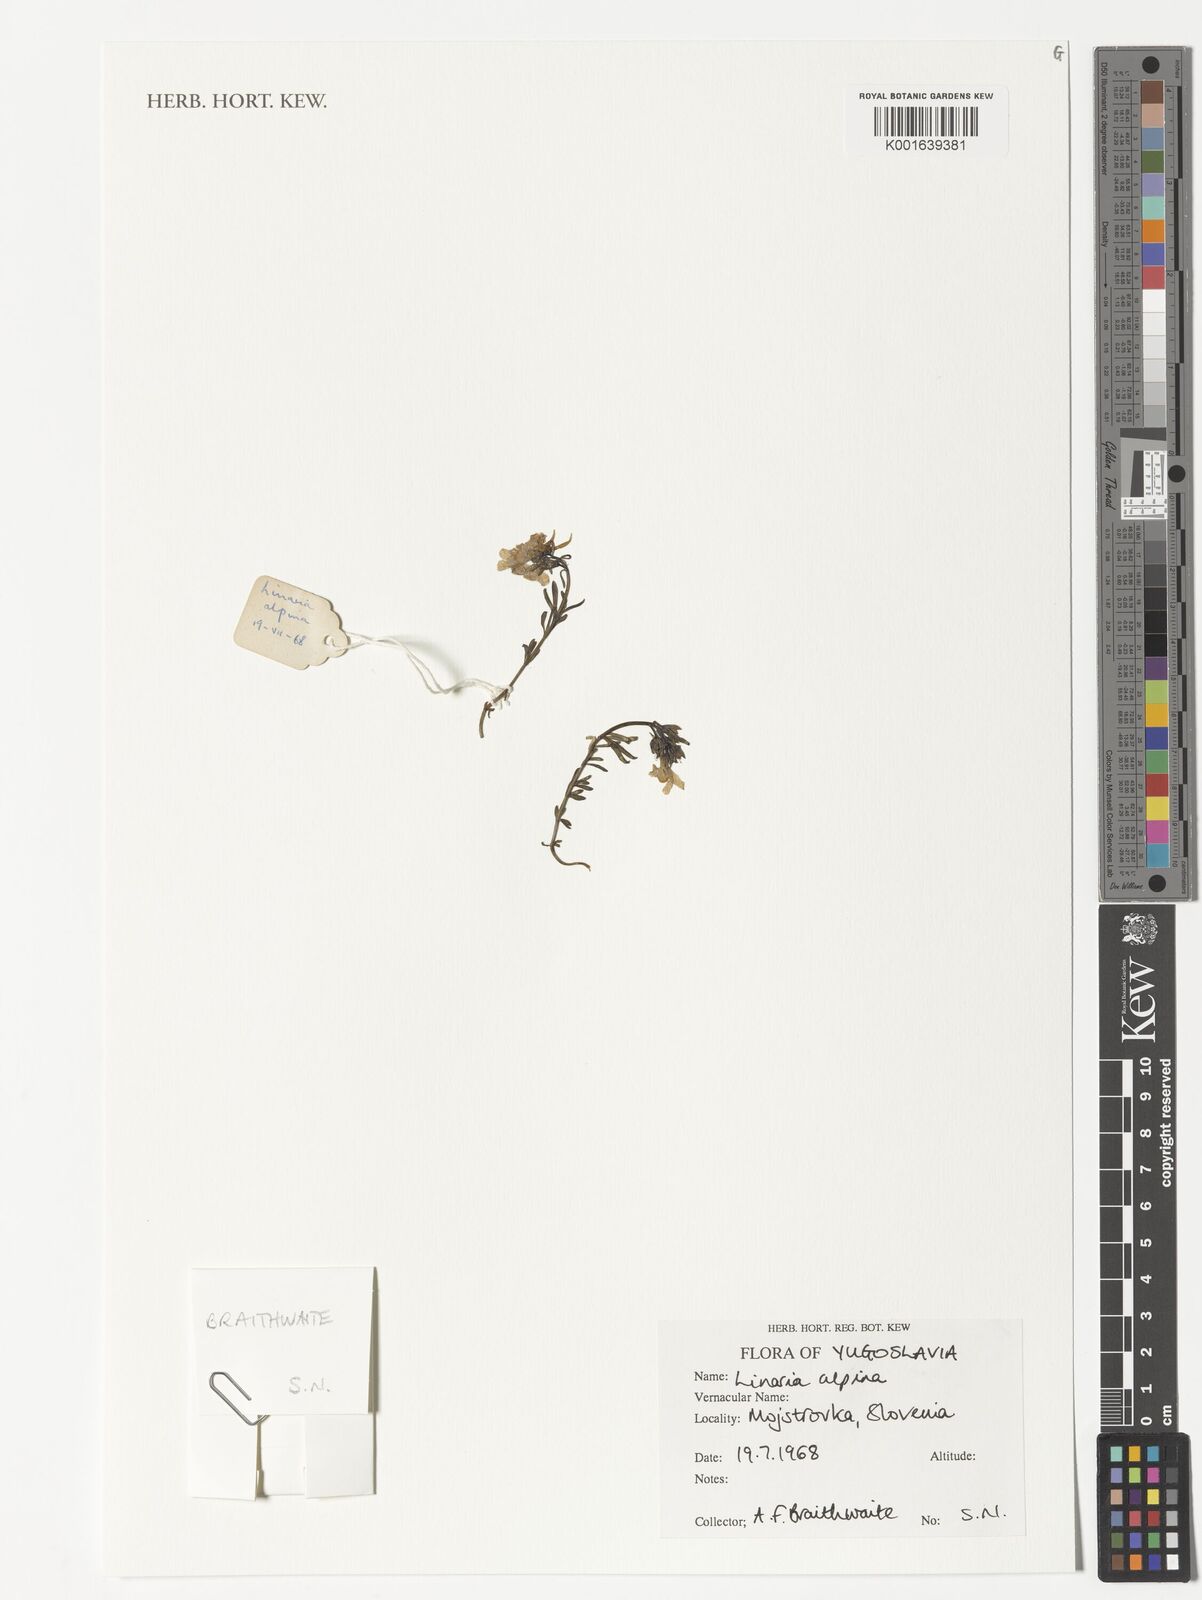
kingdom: Plantae
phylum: Tracheophyta
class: Magnoliopsida
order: Lamiales
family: Plantaginaceae
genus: Linaria
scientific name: Linaria alpina
